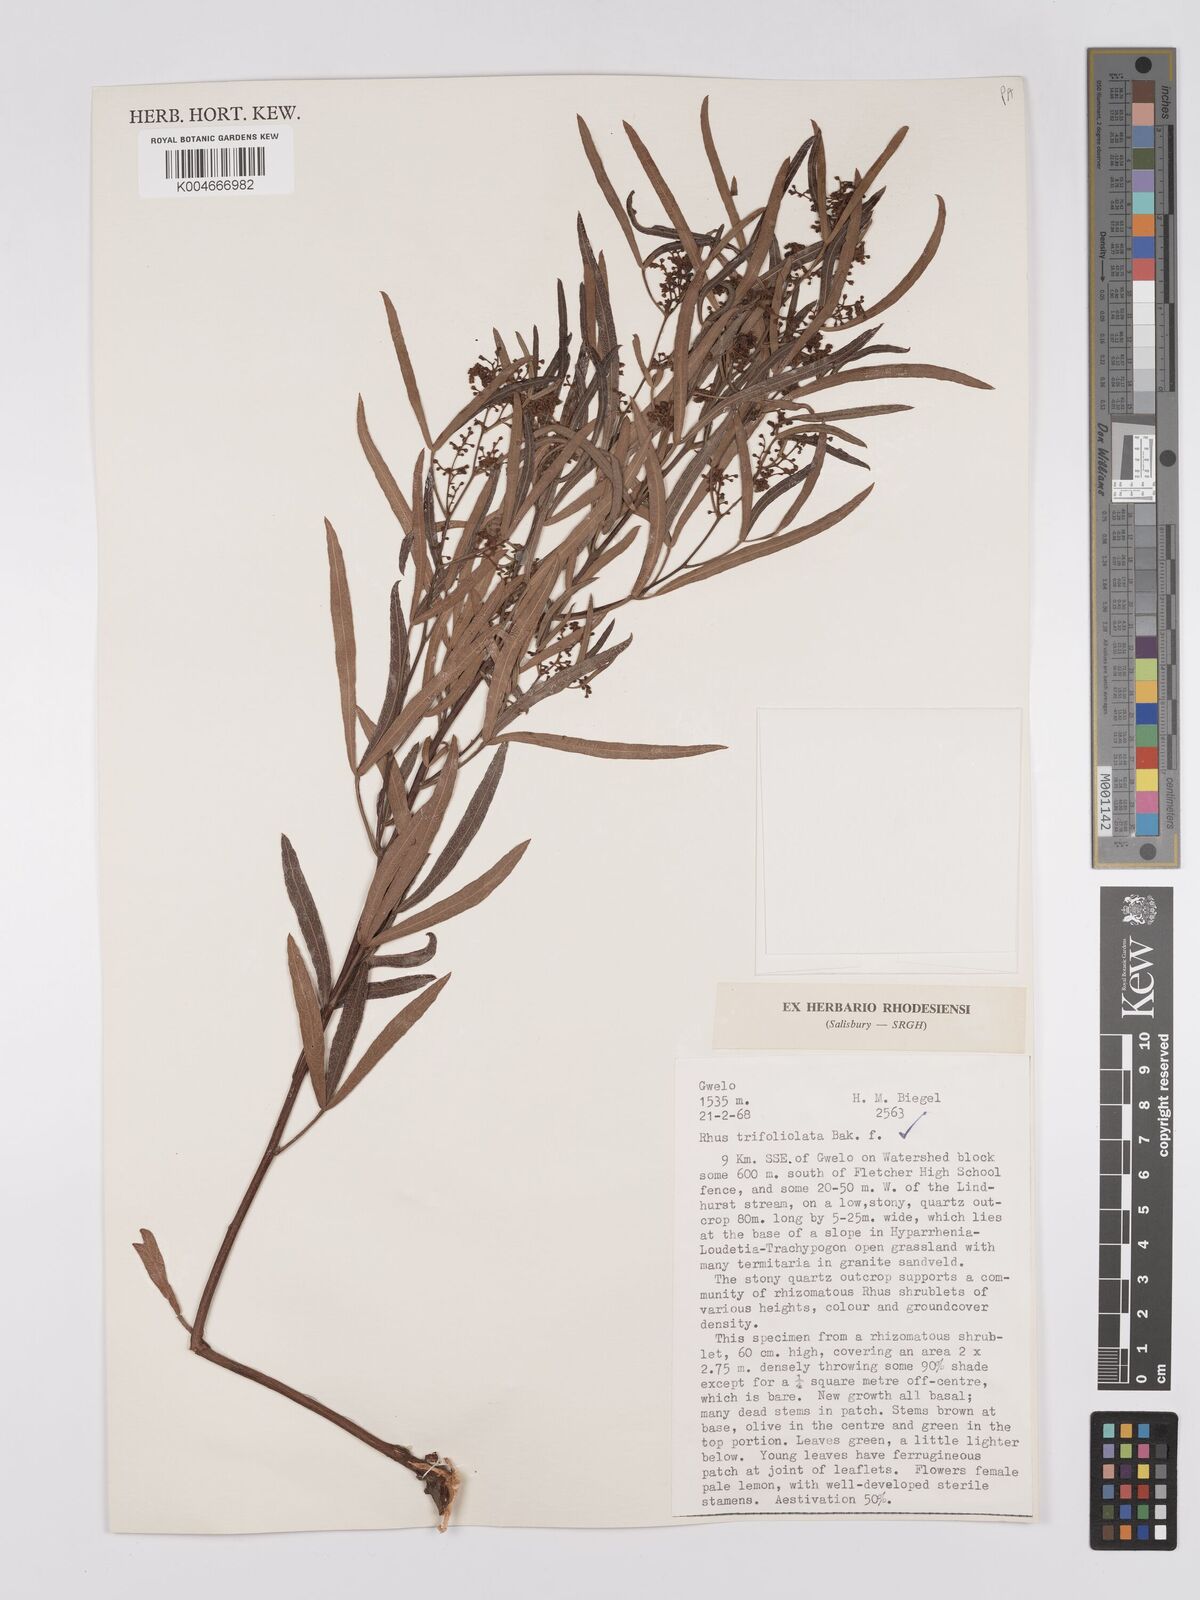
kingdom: Plantae
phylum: Tracheophyta
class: Magnoliopsida
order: Sapindales
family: Anacardiaceae
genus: Rhus
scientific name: Rhus
